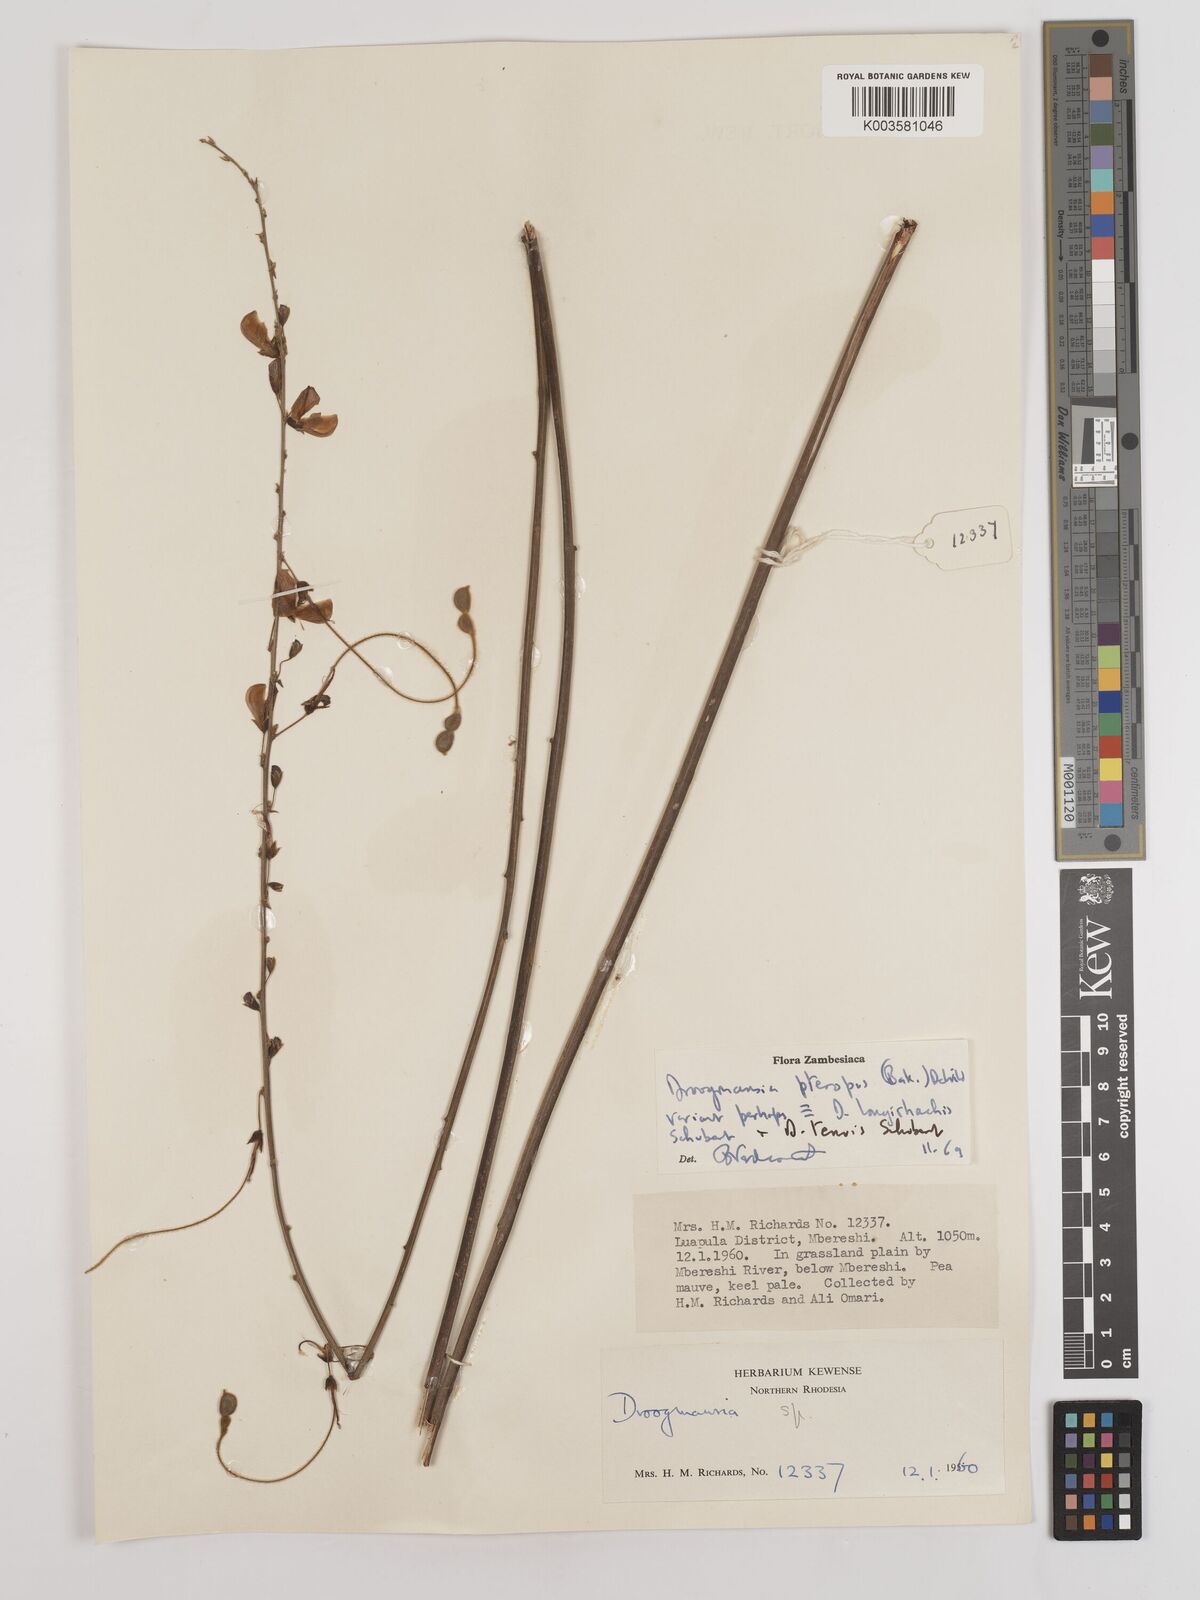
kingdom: Plantae
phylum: Tracheophyta
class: Magnoliopsida
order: Fabales
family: Fabaceae
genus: Droogmansia
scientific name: Droogmansia
